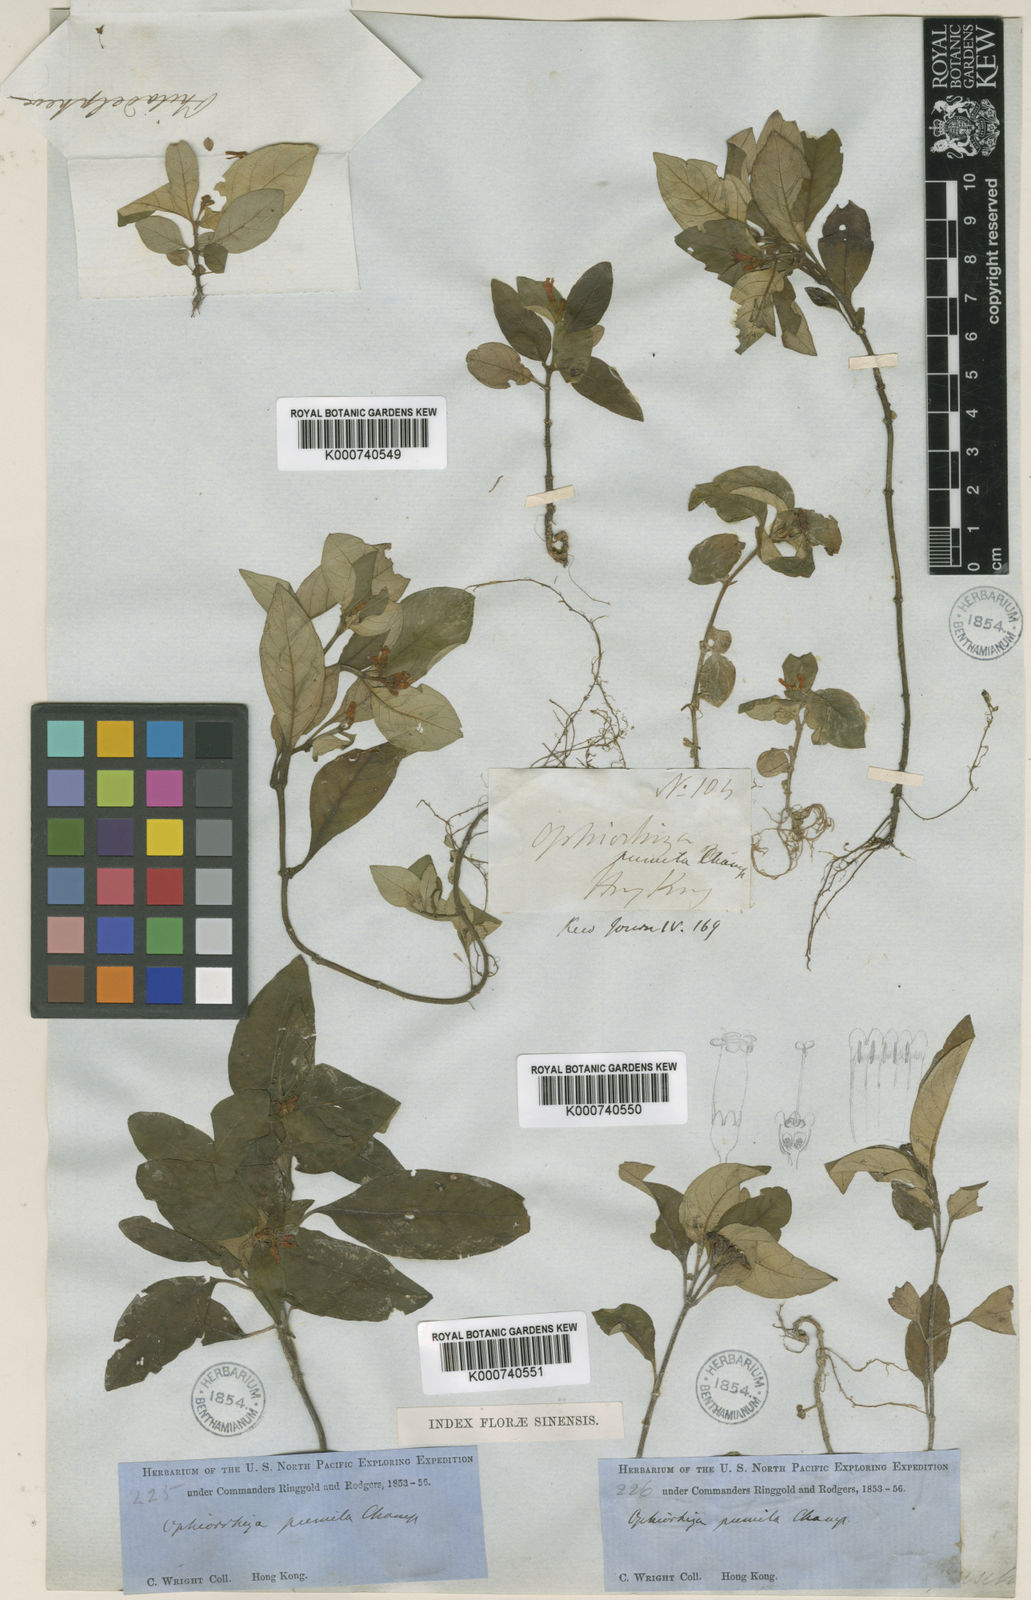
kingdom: Plantae
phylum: Tracheophyta
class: Magnoliopsida
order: Gentianales
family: Rubiaceae
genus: Ophiorrhiza
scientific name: Ophiorrhiza pumila
